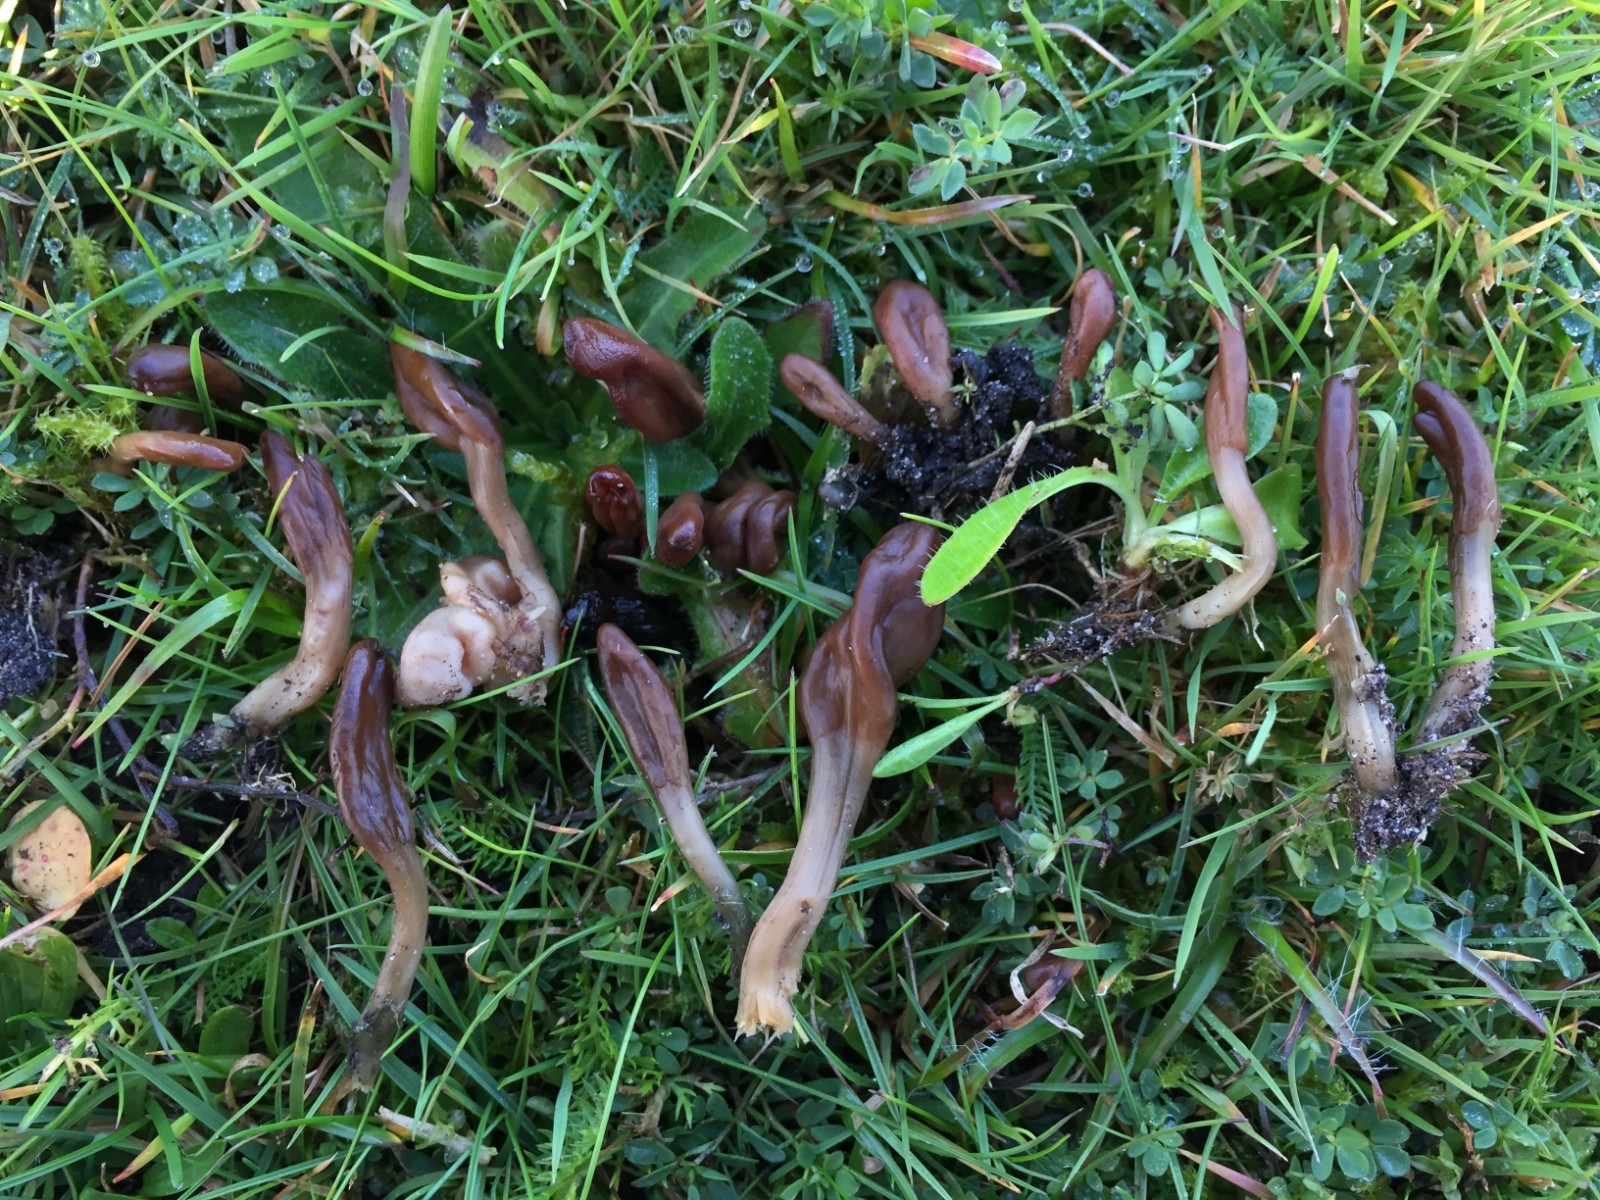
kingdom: Fungi
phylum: Ascomycota
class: Leotiomycetes
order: Leotiales
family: Leotiaceae
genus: Microglossum
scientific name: Microglossum olivaceum
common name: olivenbrun farvetunge
